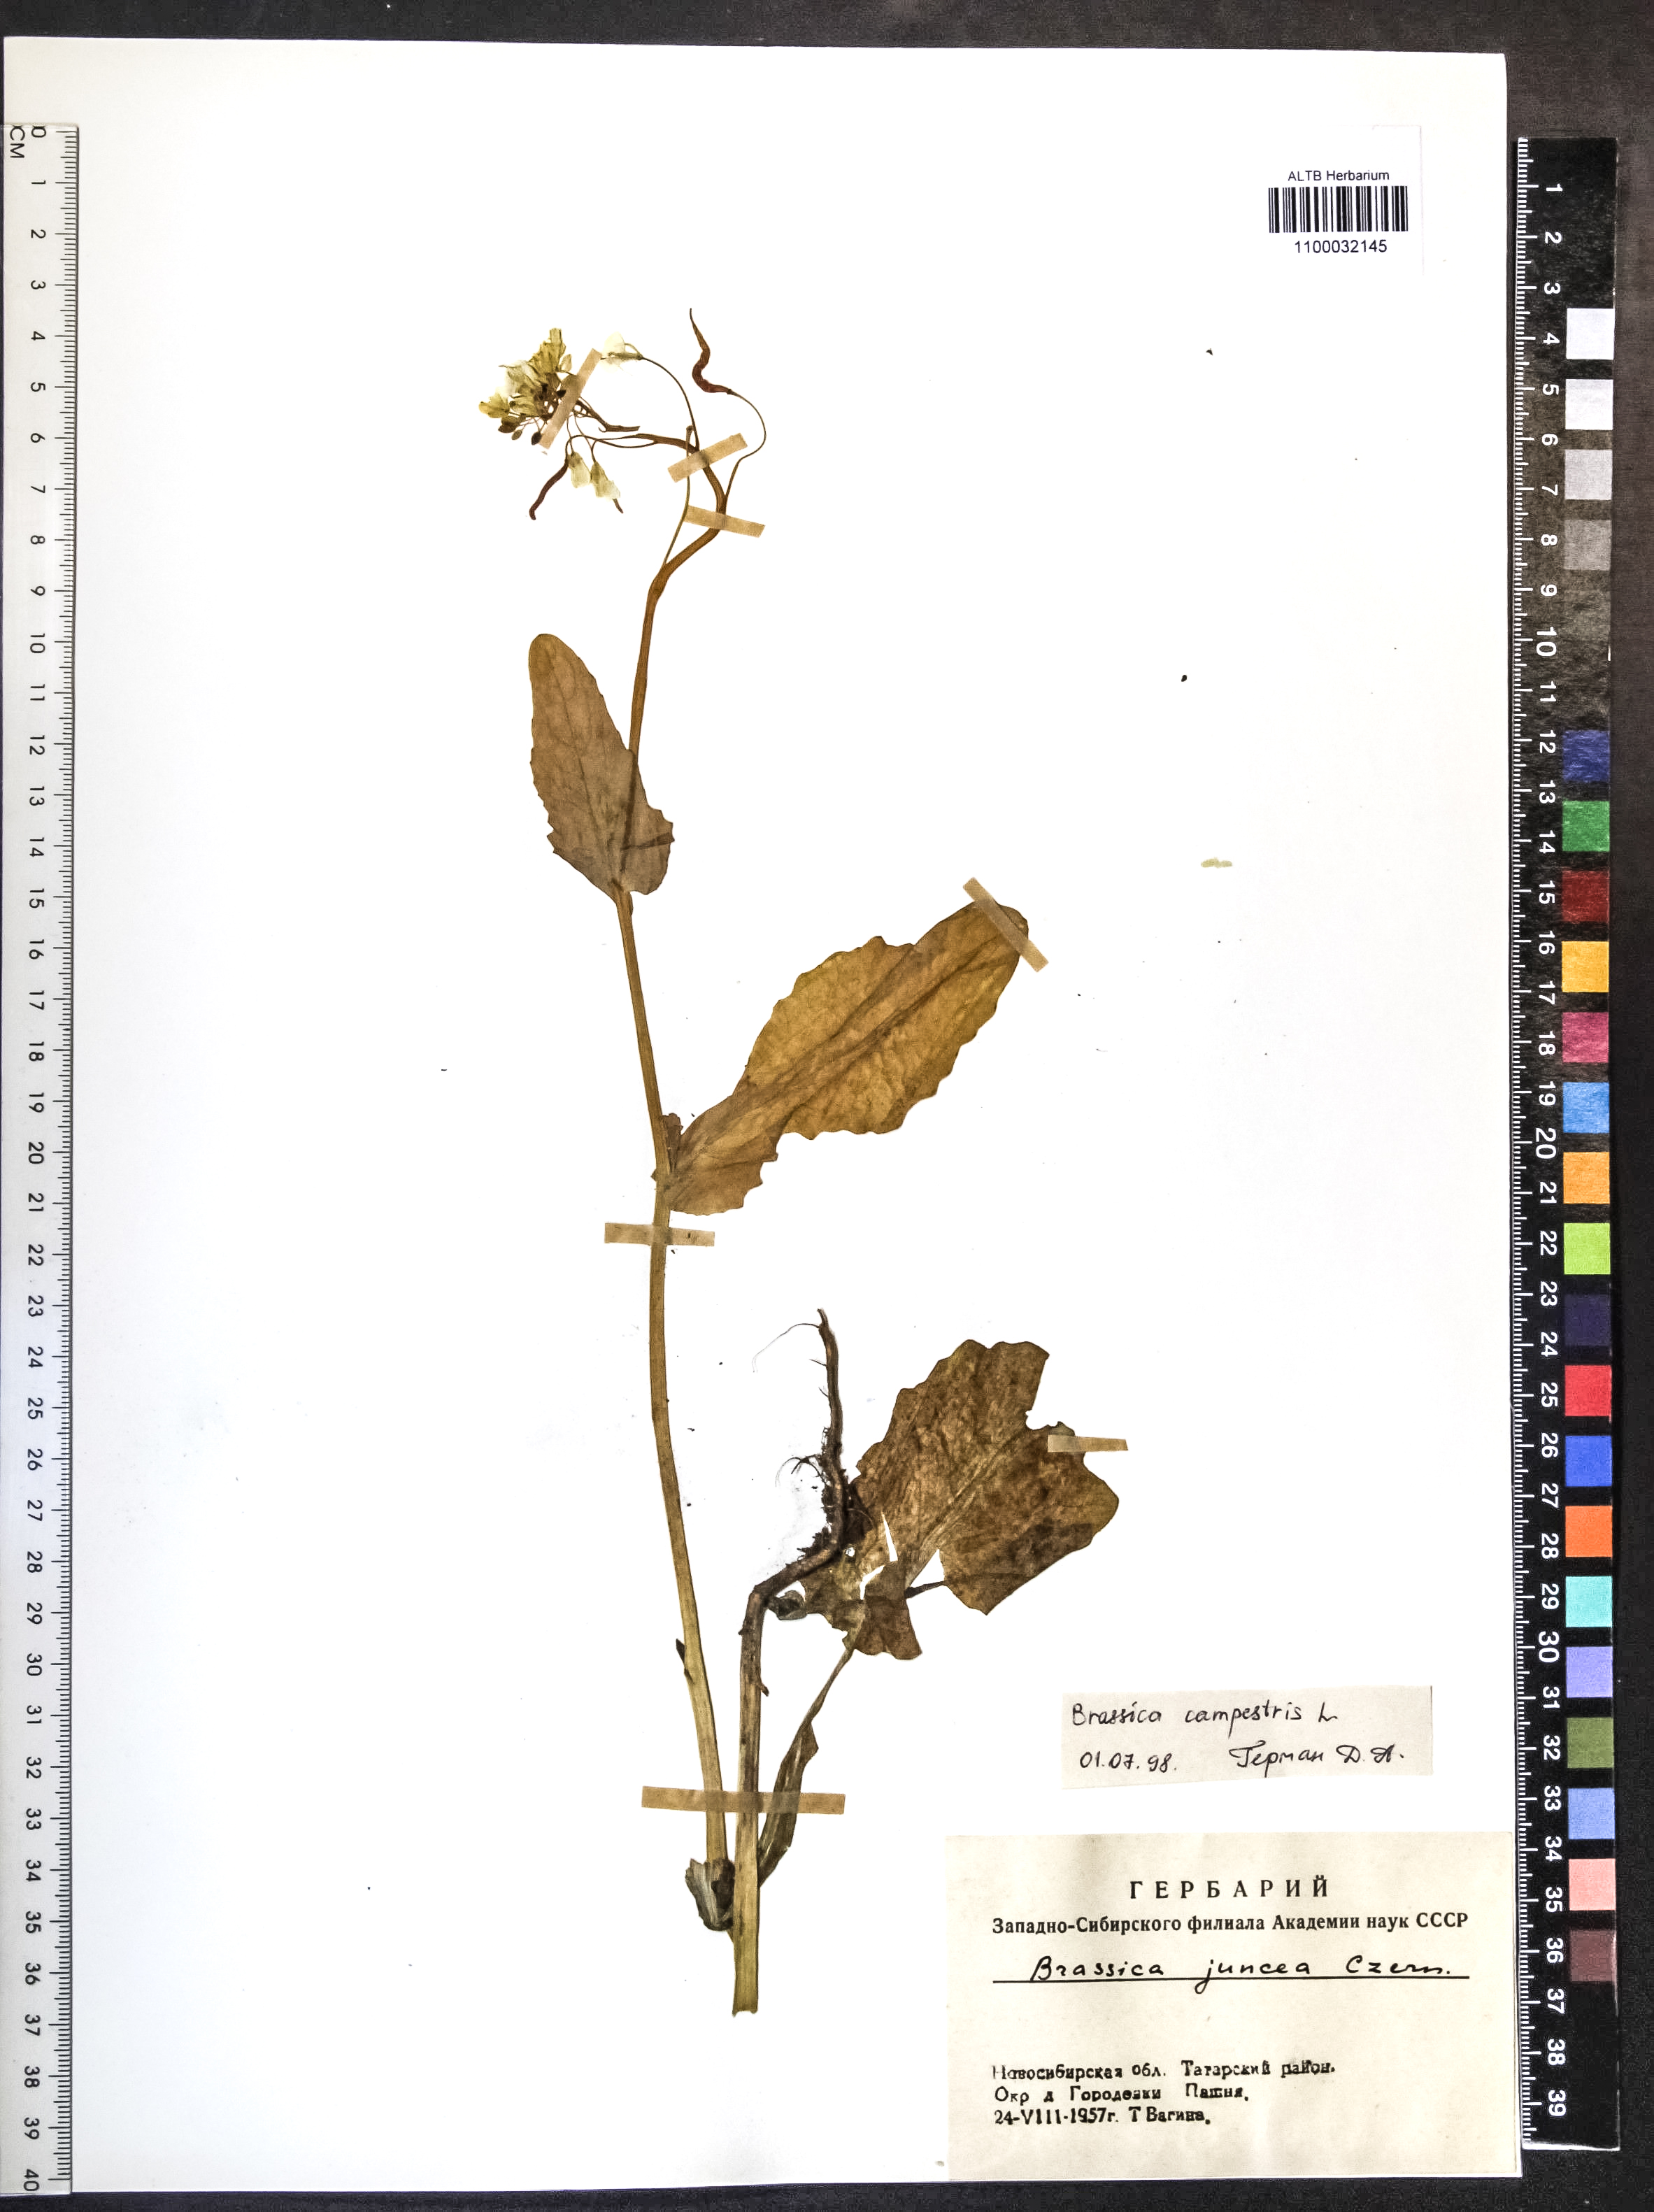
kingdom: Plantae
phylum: Tracheophyta
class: Magnoliopsida
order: Brassicales
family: Brassicaceae
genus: Brassica
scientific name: Brassica juncea
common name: Brown mustard
